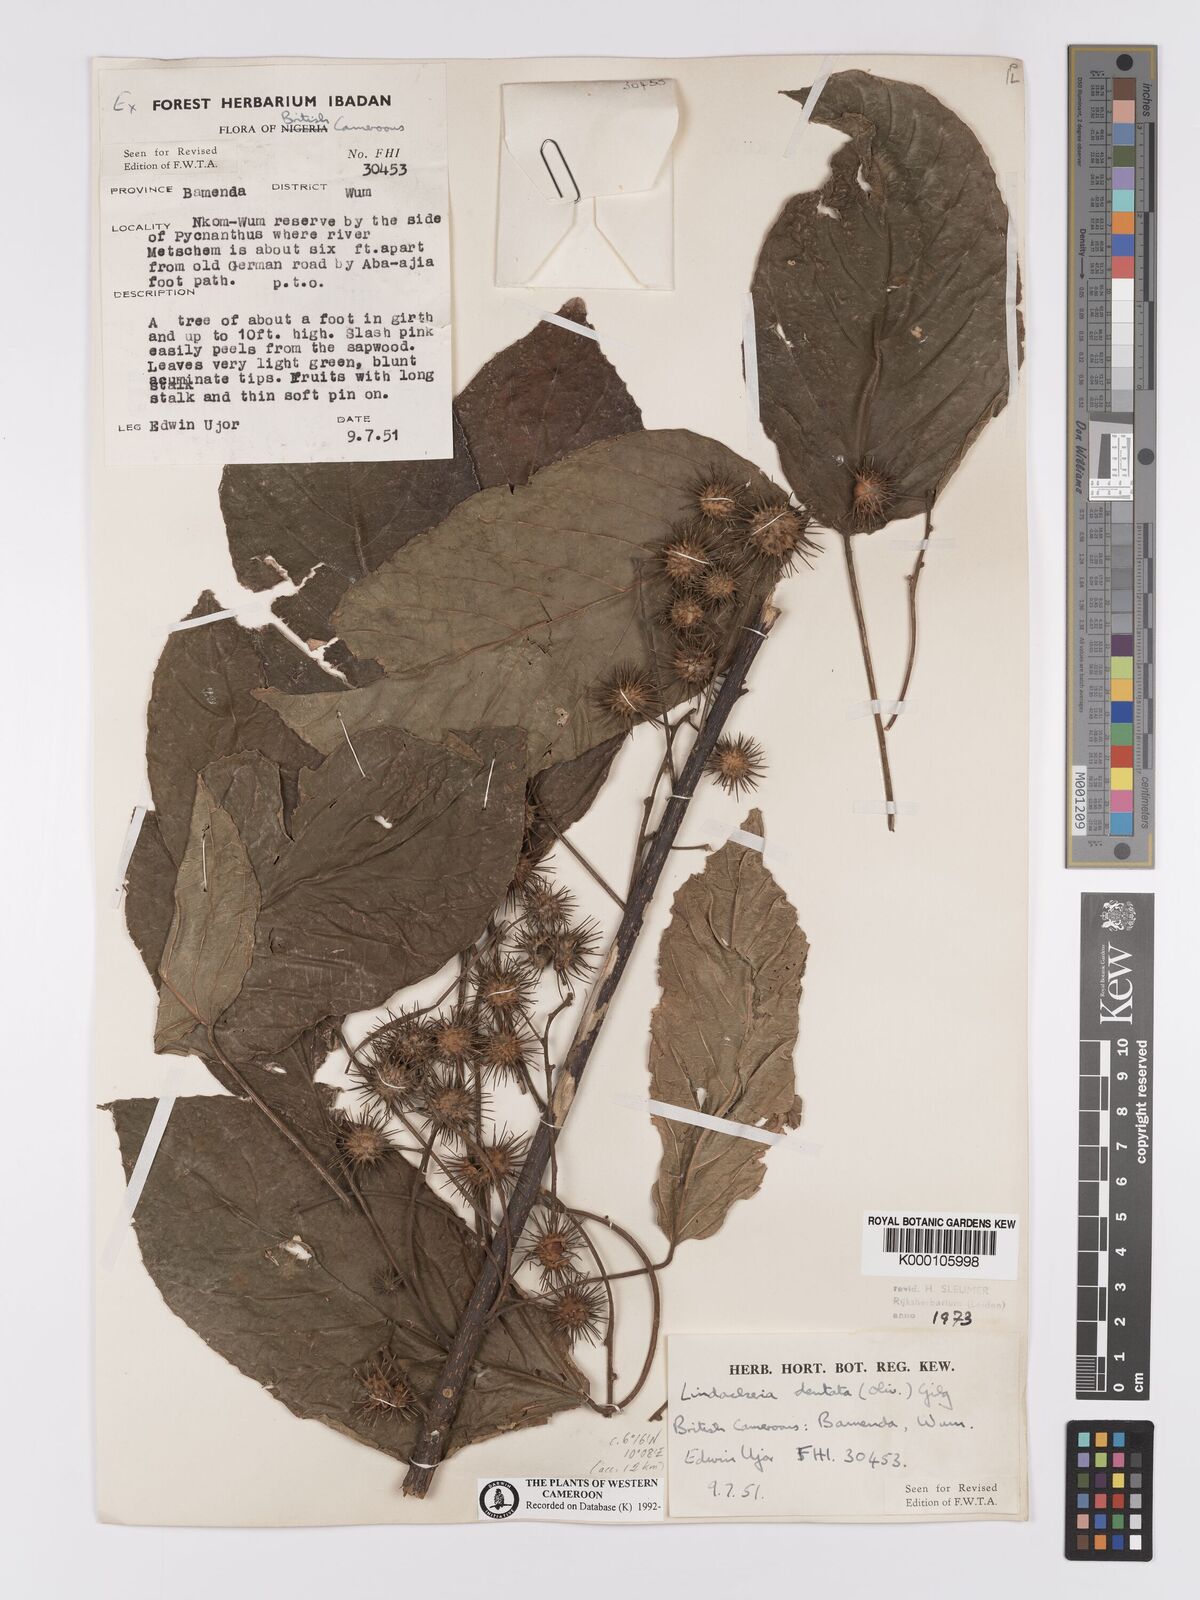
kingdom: Plantae
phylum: Tracheophyta
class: Magnoliopsida
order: Malpighiales
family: Achariaceae
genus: Lindackeria
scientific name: Lindackeria dentata
